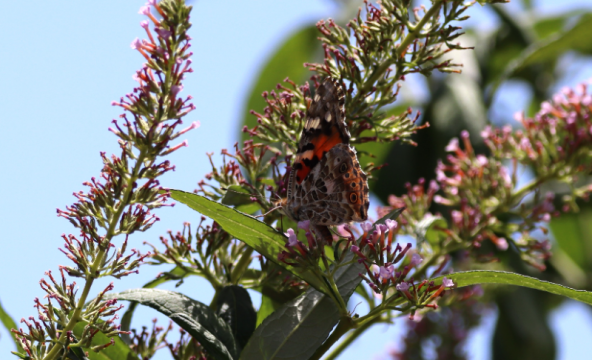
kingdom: Animalia
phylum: Arthropoda
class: Insecta
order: Lepidoptera
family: Nymphalidae
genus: Vanessa
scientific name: Vanessa cardui
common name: Painted Lady
